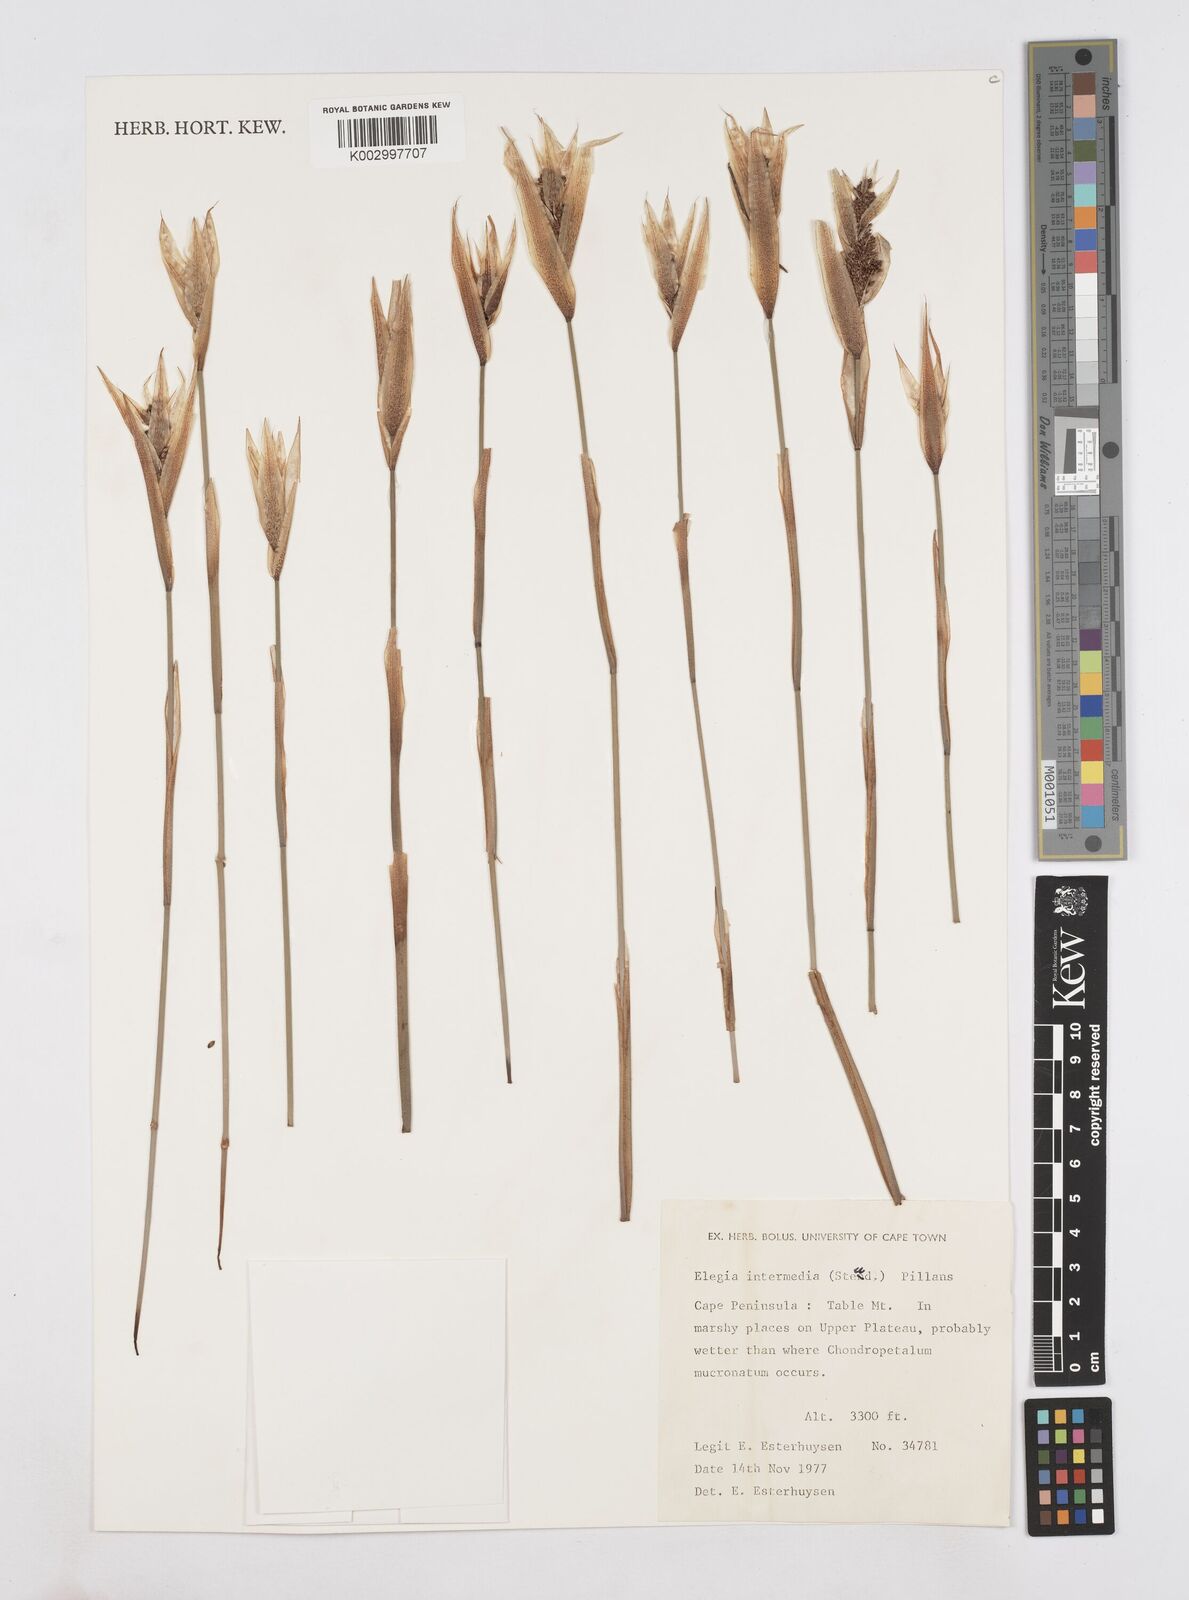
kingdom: Plantae
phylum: Tracheophyta
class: Liliopsida
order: Poales
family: Restionaceae
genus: Elegia
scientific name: Elegia intermedia
